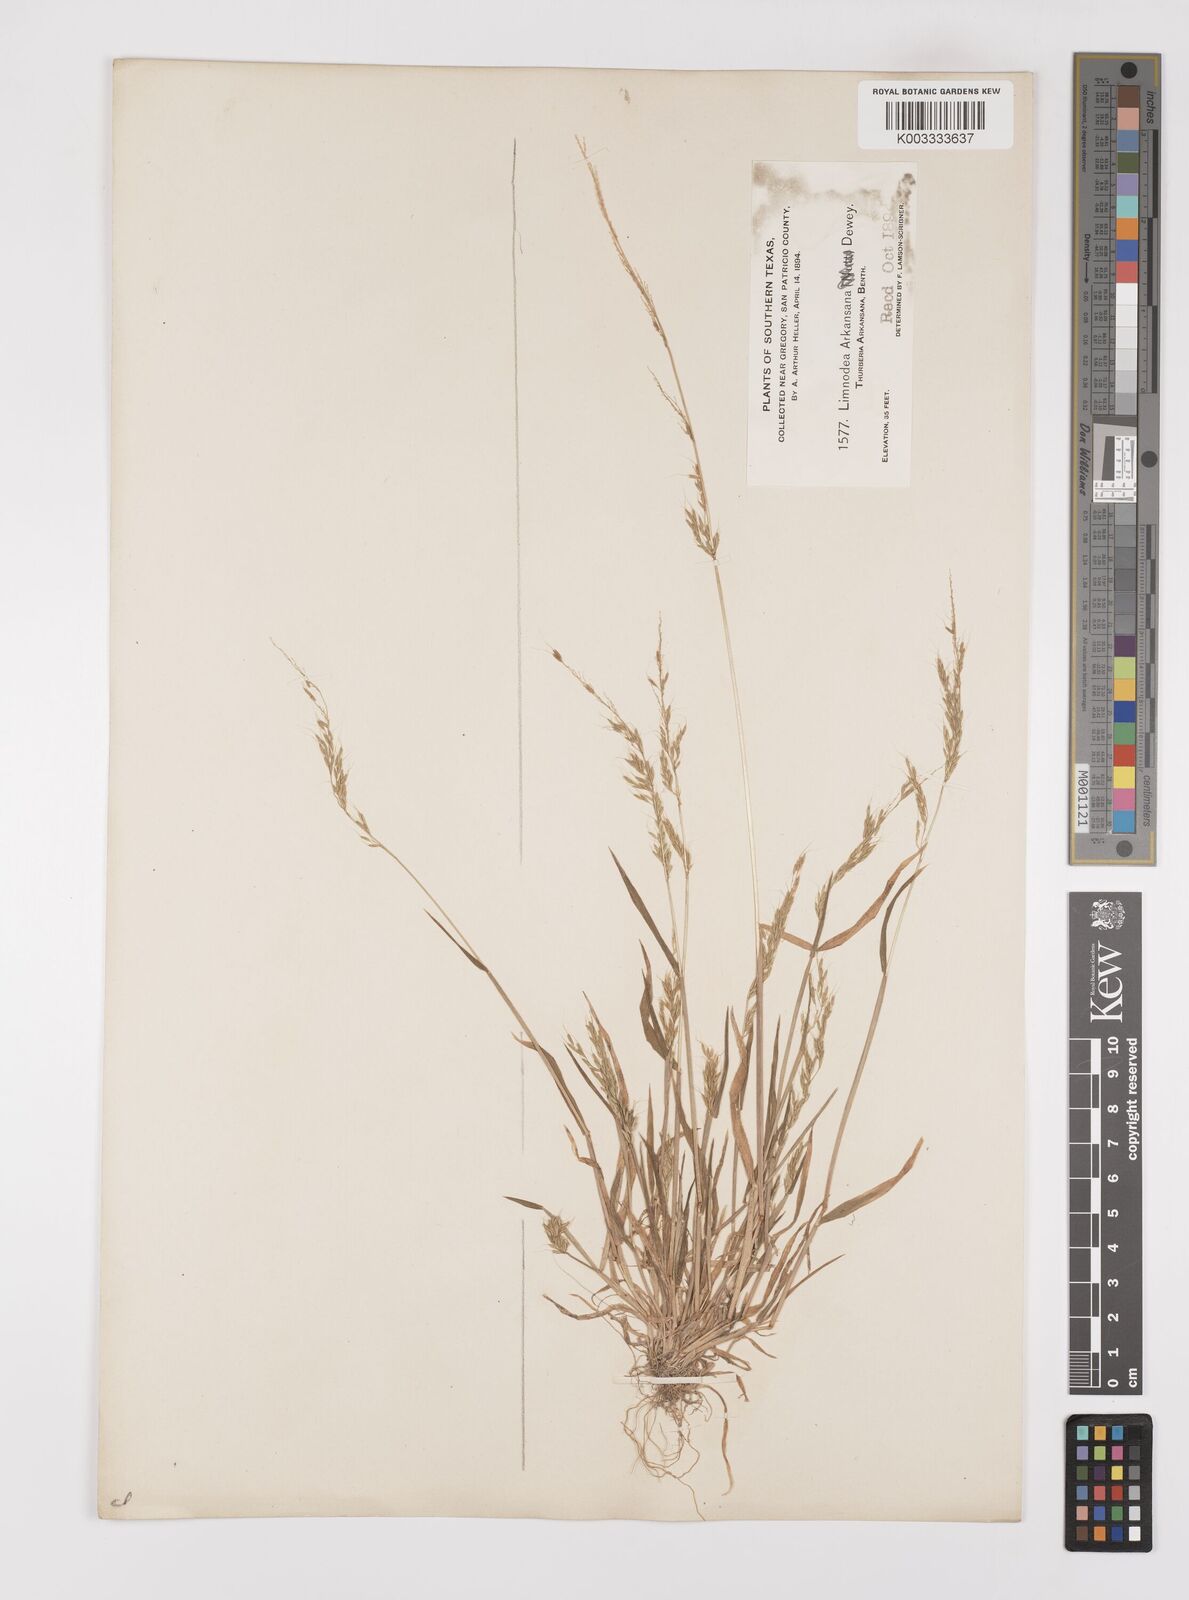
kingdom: Plantae
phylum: Tracheophyta
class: Liliopsida
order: Poales
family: Poaceae
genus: Limnodea
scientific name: Limnodea arkansana
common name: Ozark-grass
